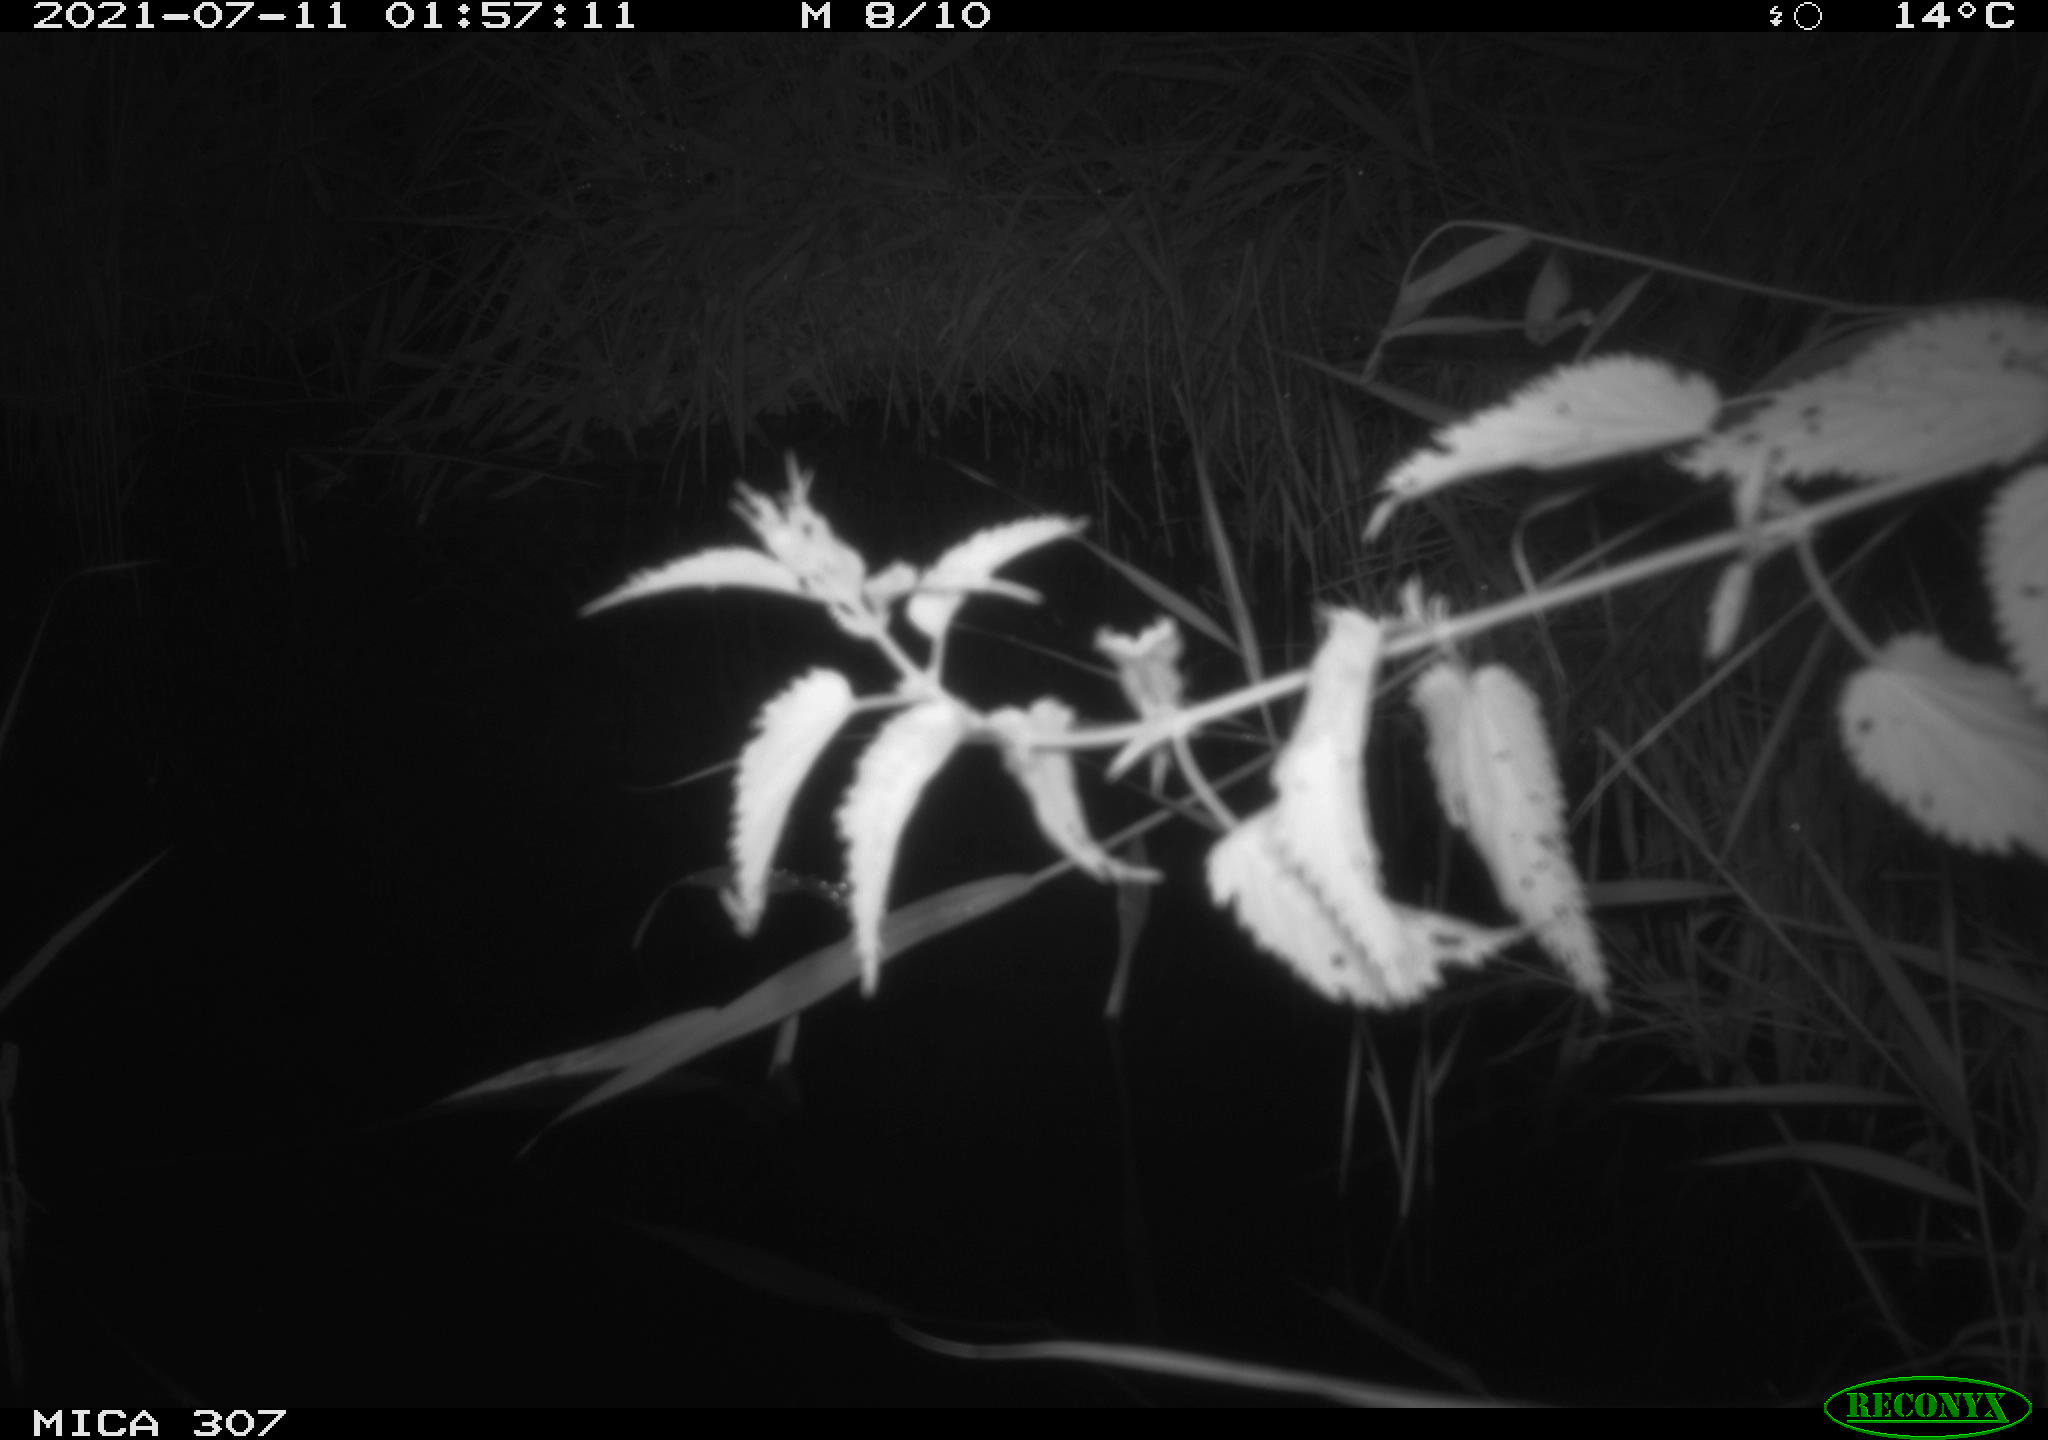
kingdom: Animalia
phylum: Chordata
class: Mammalia
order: Rodentia
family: Muridae
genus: Rattus
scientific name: Rattus norvegicus
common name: Brown rat
